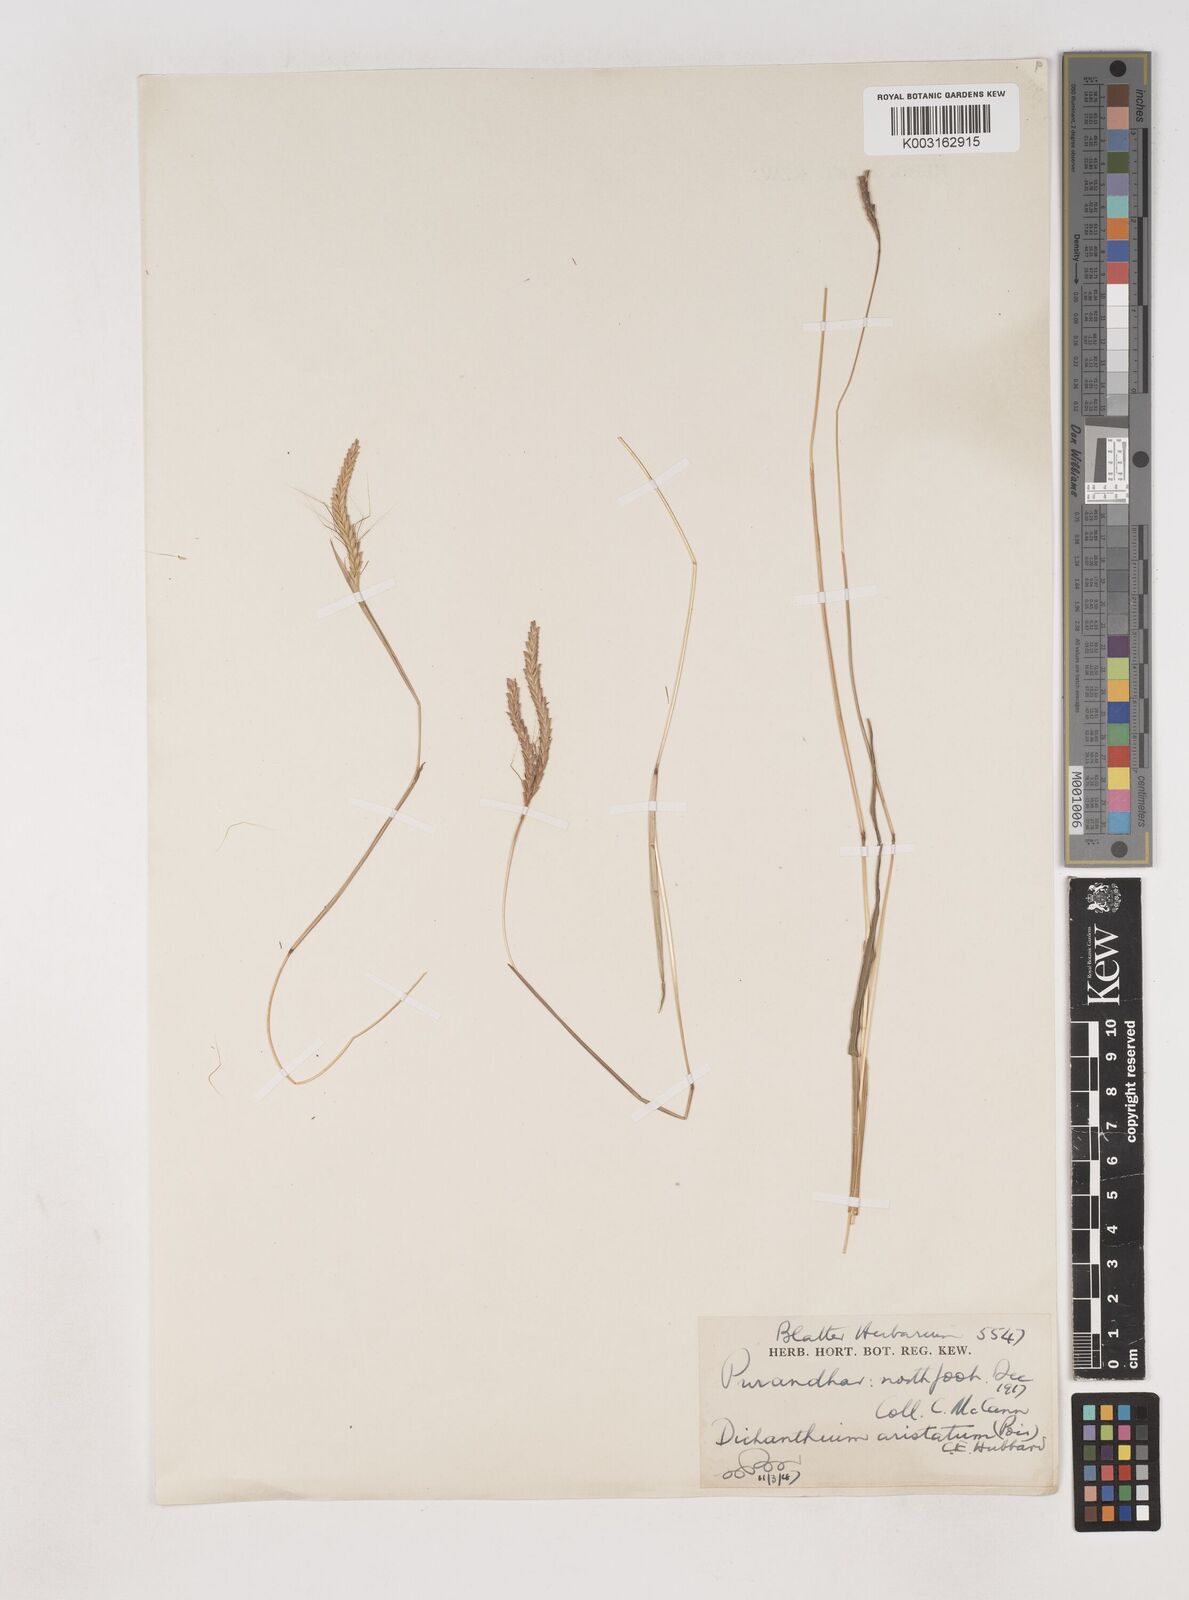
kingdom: Plantae
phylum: Tracheophyta
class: Liliopsida
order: Poales
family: Poaceae
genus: Dichanthium
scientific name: Dichanthium aristatum
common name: Angleton bluestem
